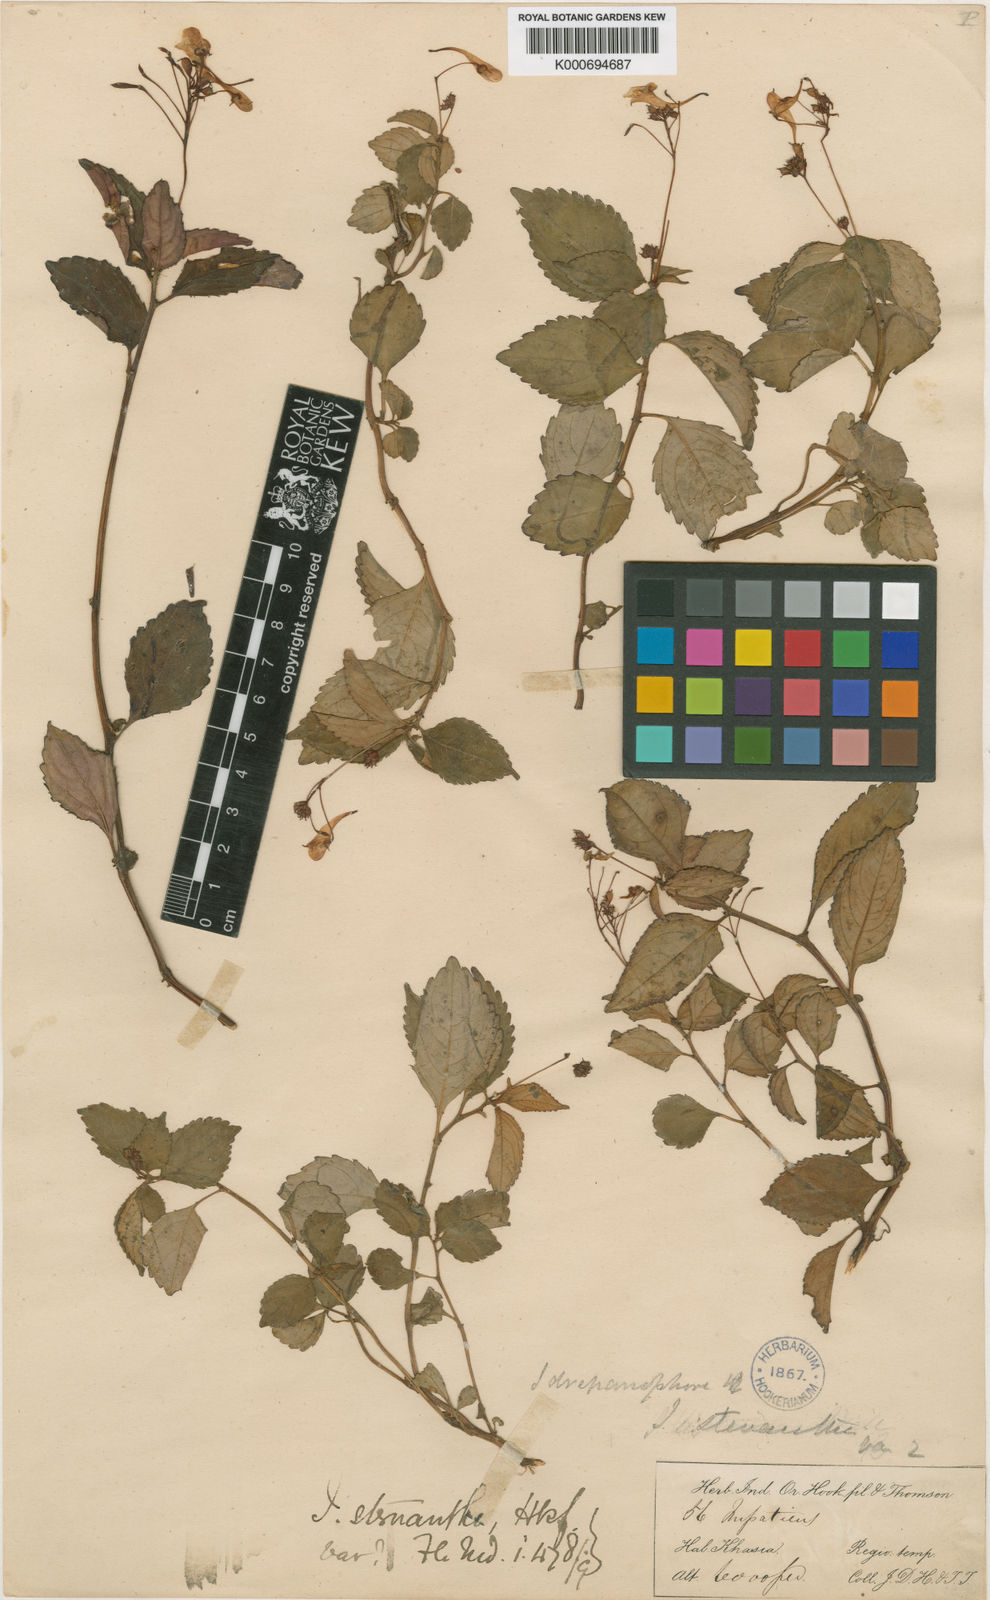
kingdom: Plantae
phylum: Tracheophyta
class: Magnoliopsida
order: Ericales
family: Balsaminaceae
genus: Impatiens
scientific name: Impatiens drepanophora
